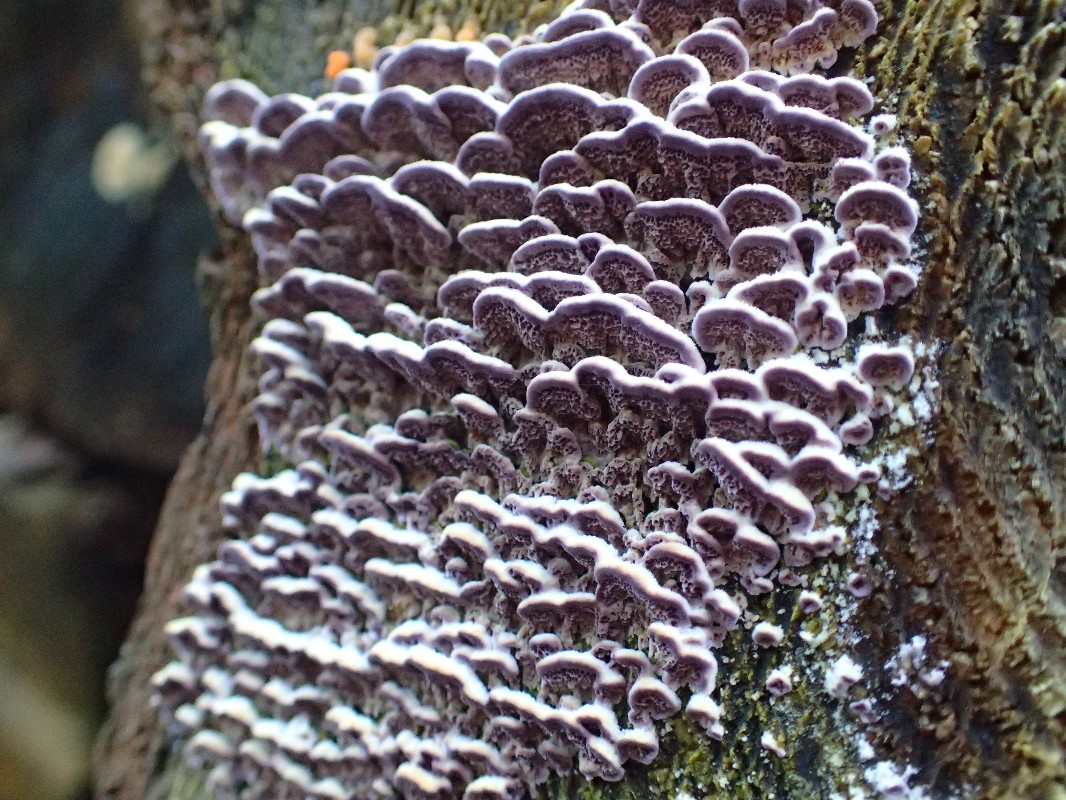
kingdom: Fungi
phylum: Basidiomycota
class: Agaricomycetes
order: Hymenochaetales
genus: Trichaptum
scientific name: Trichaptum abietinum
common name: almindelig violporesvamp
